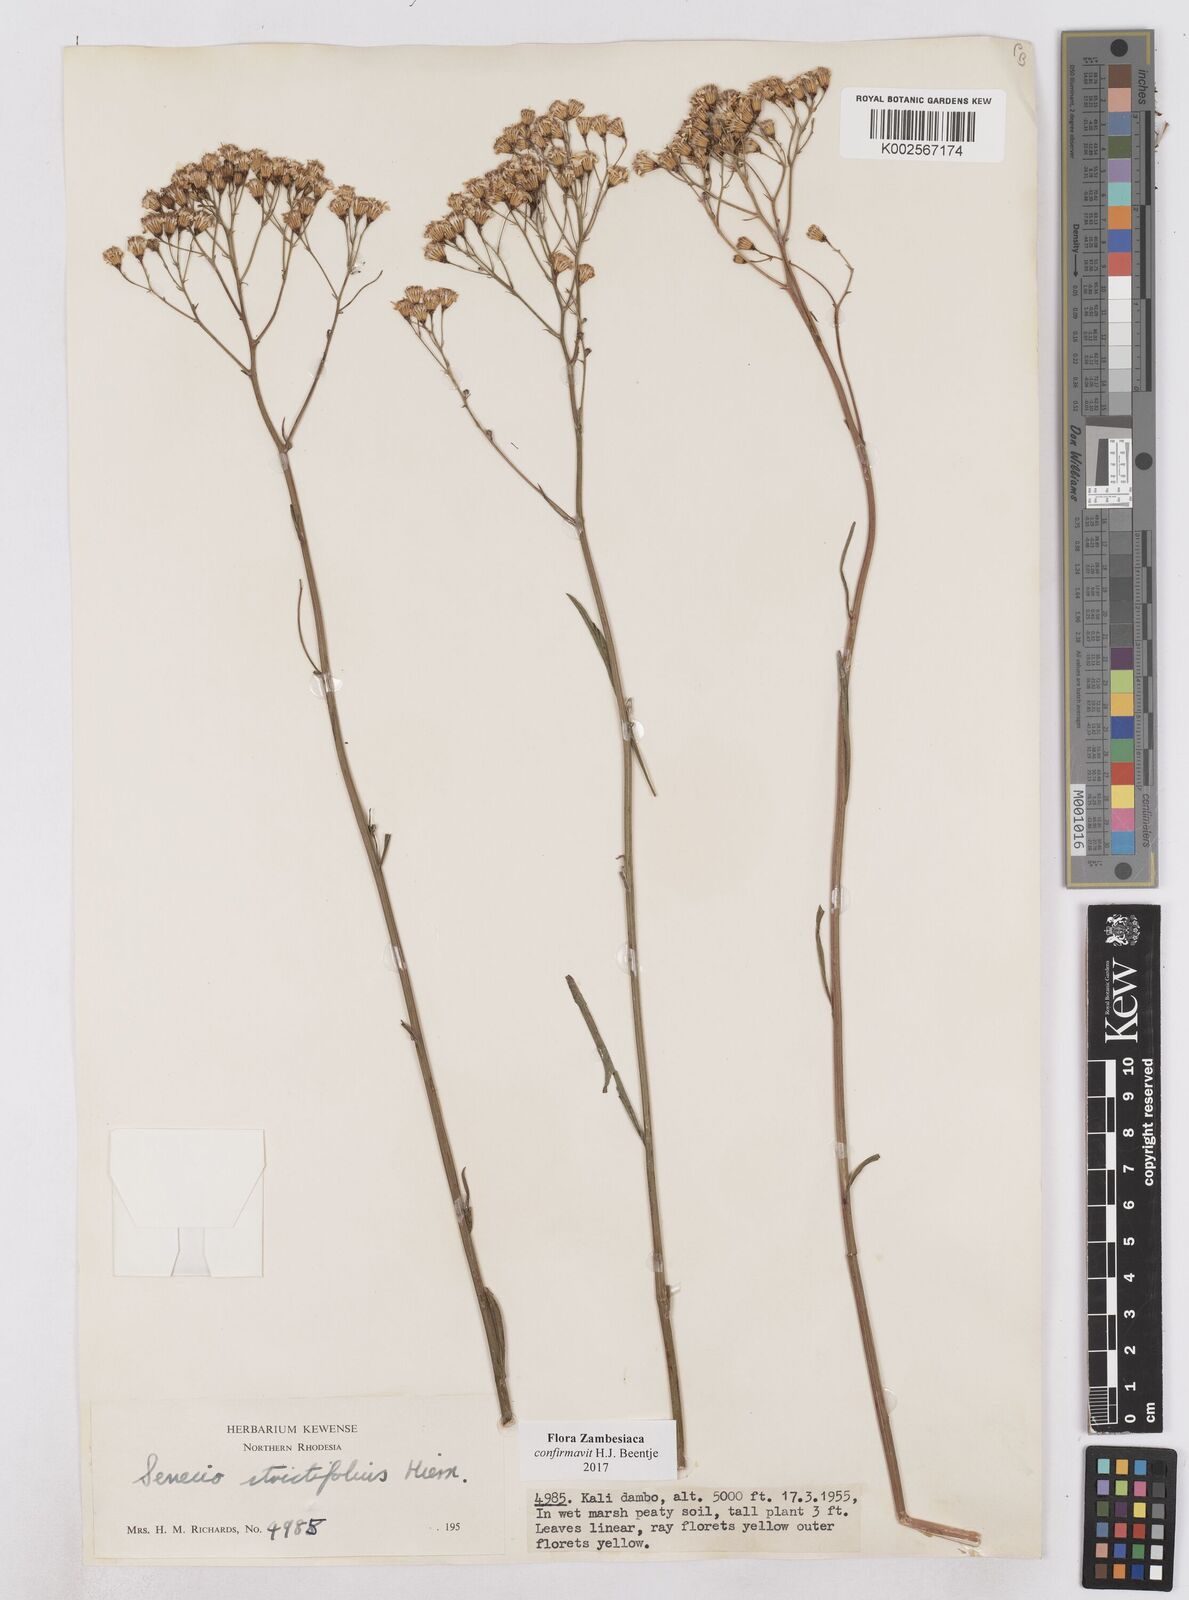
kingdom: Plantae
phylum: Tracheophyta
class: Magnoliopsida
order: Asterales
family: Asteraceae
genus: Senecio
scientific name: Senecio strictifolius
